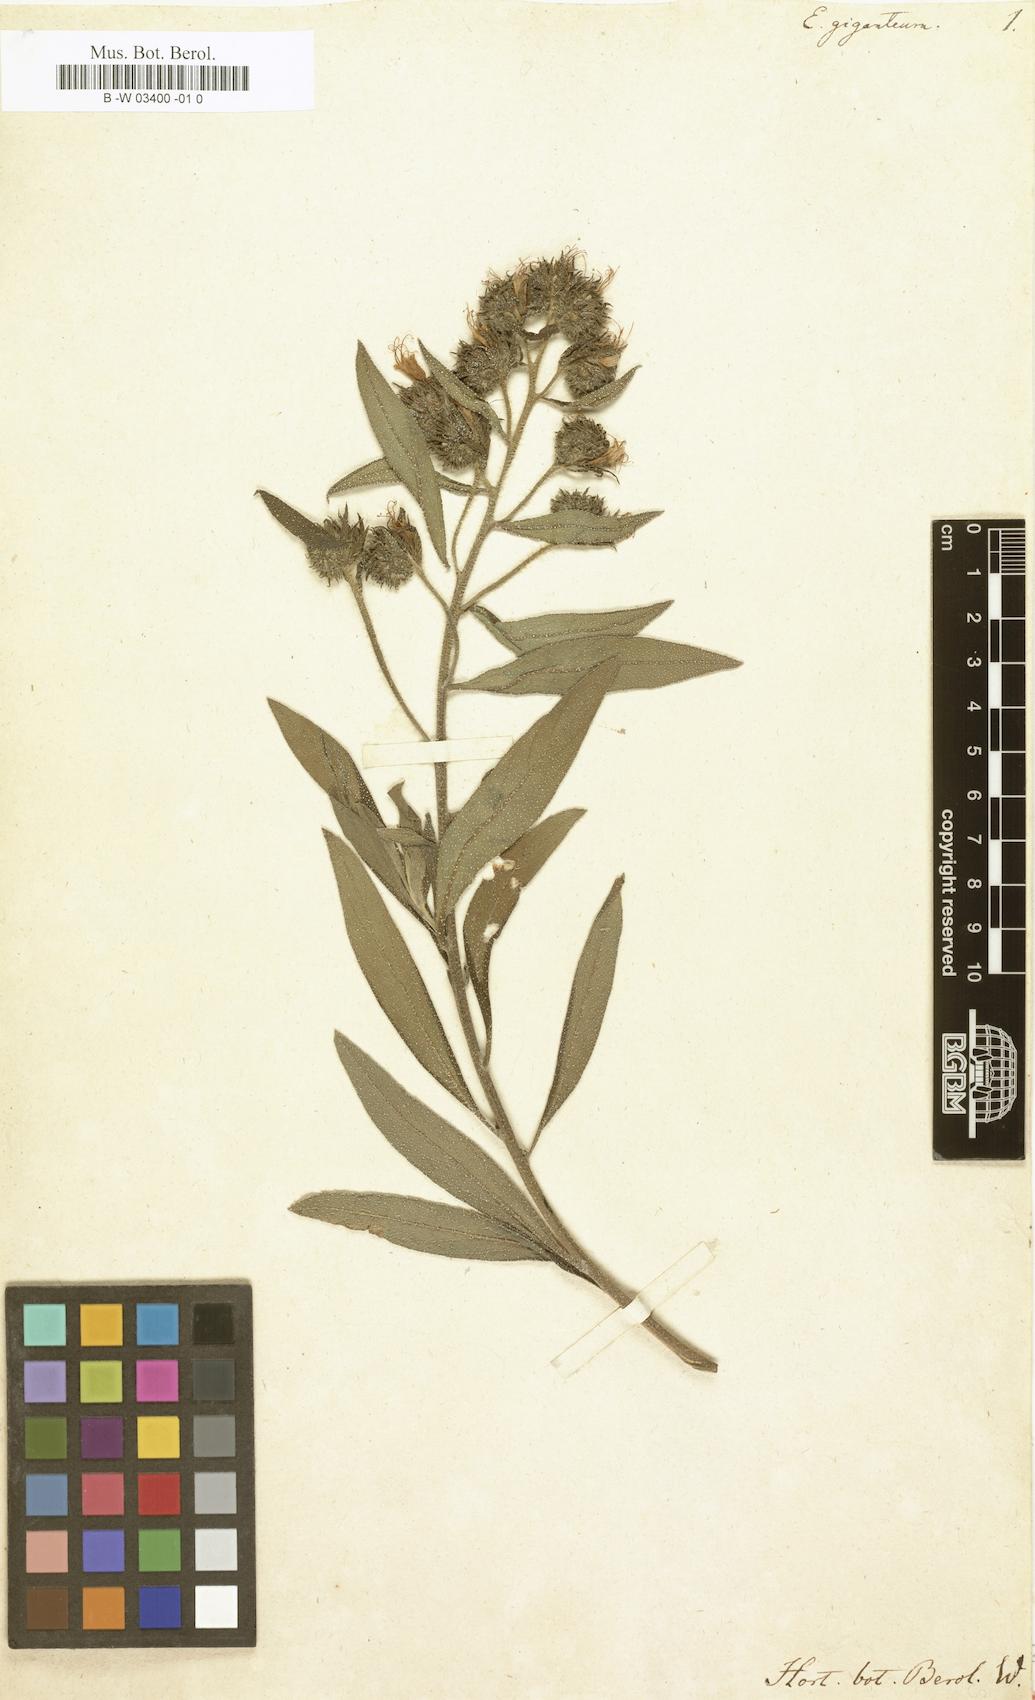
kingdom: Plantae
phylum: Tracheophyta
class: Magnoliopsida
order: Boraginales
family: Boraginaceae
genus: Echium
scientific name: Echium giganteum
